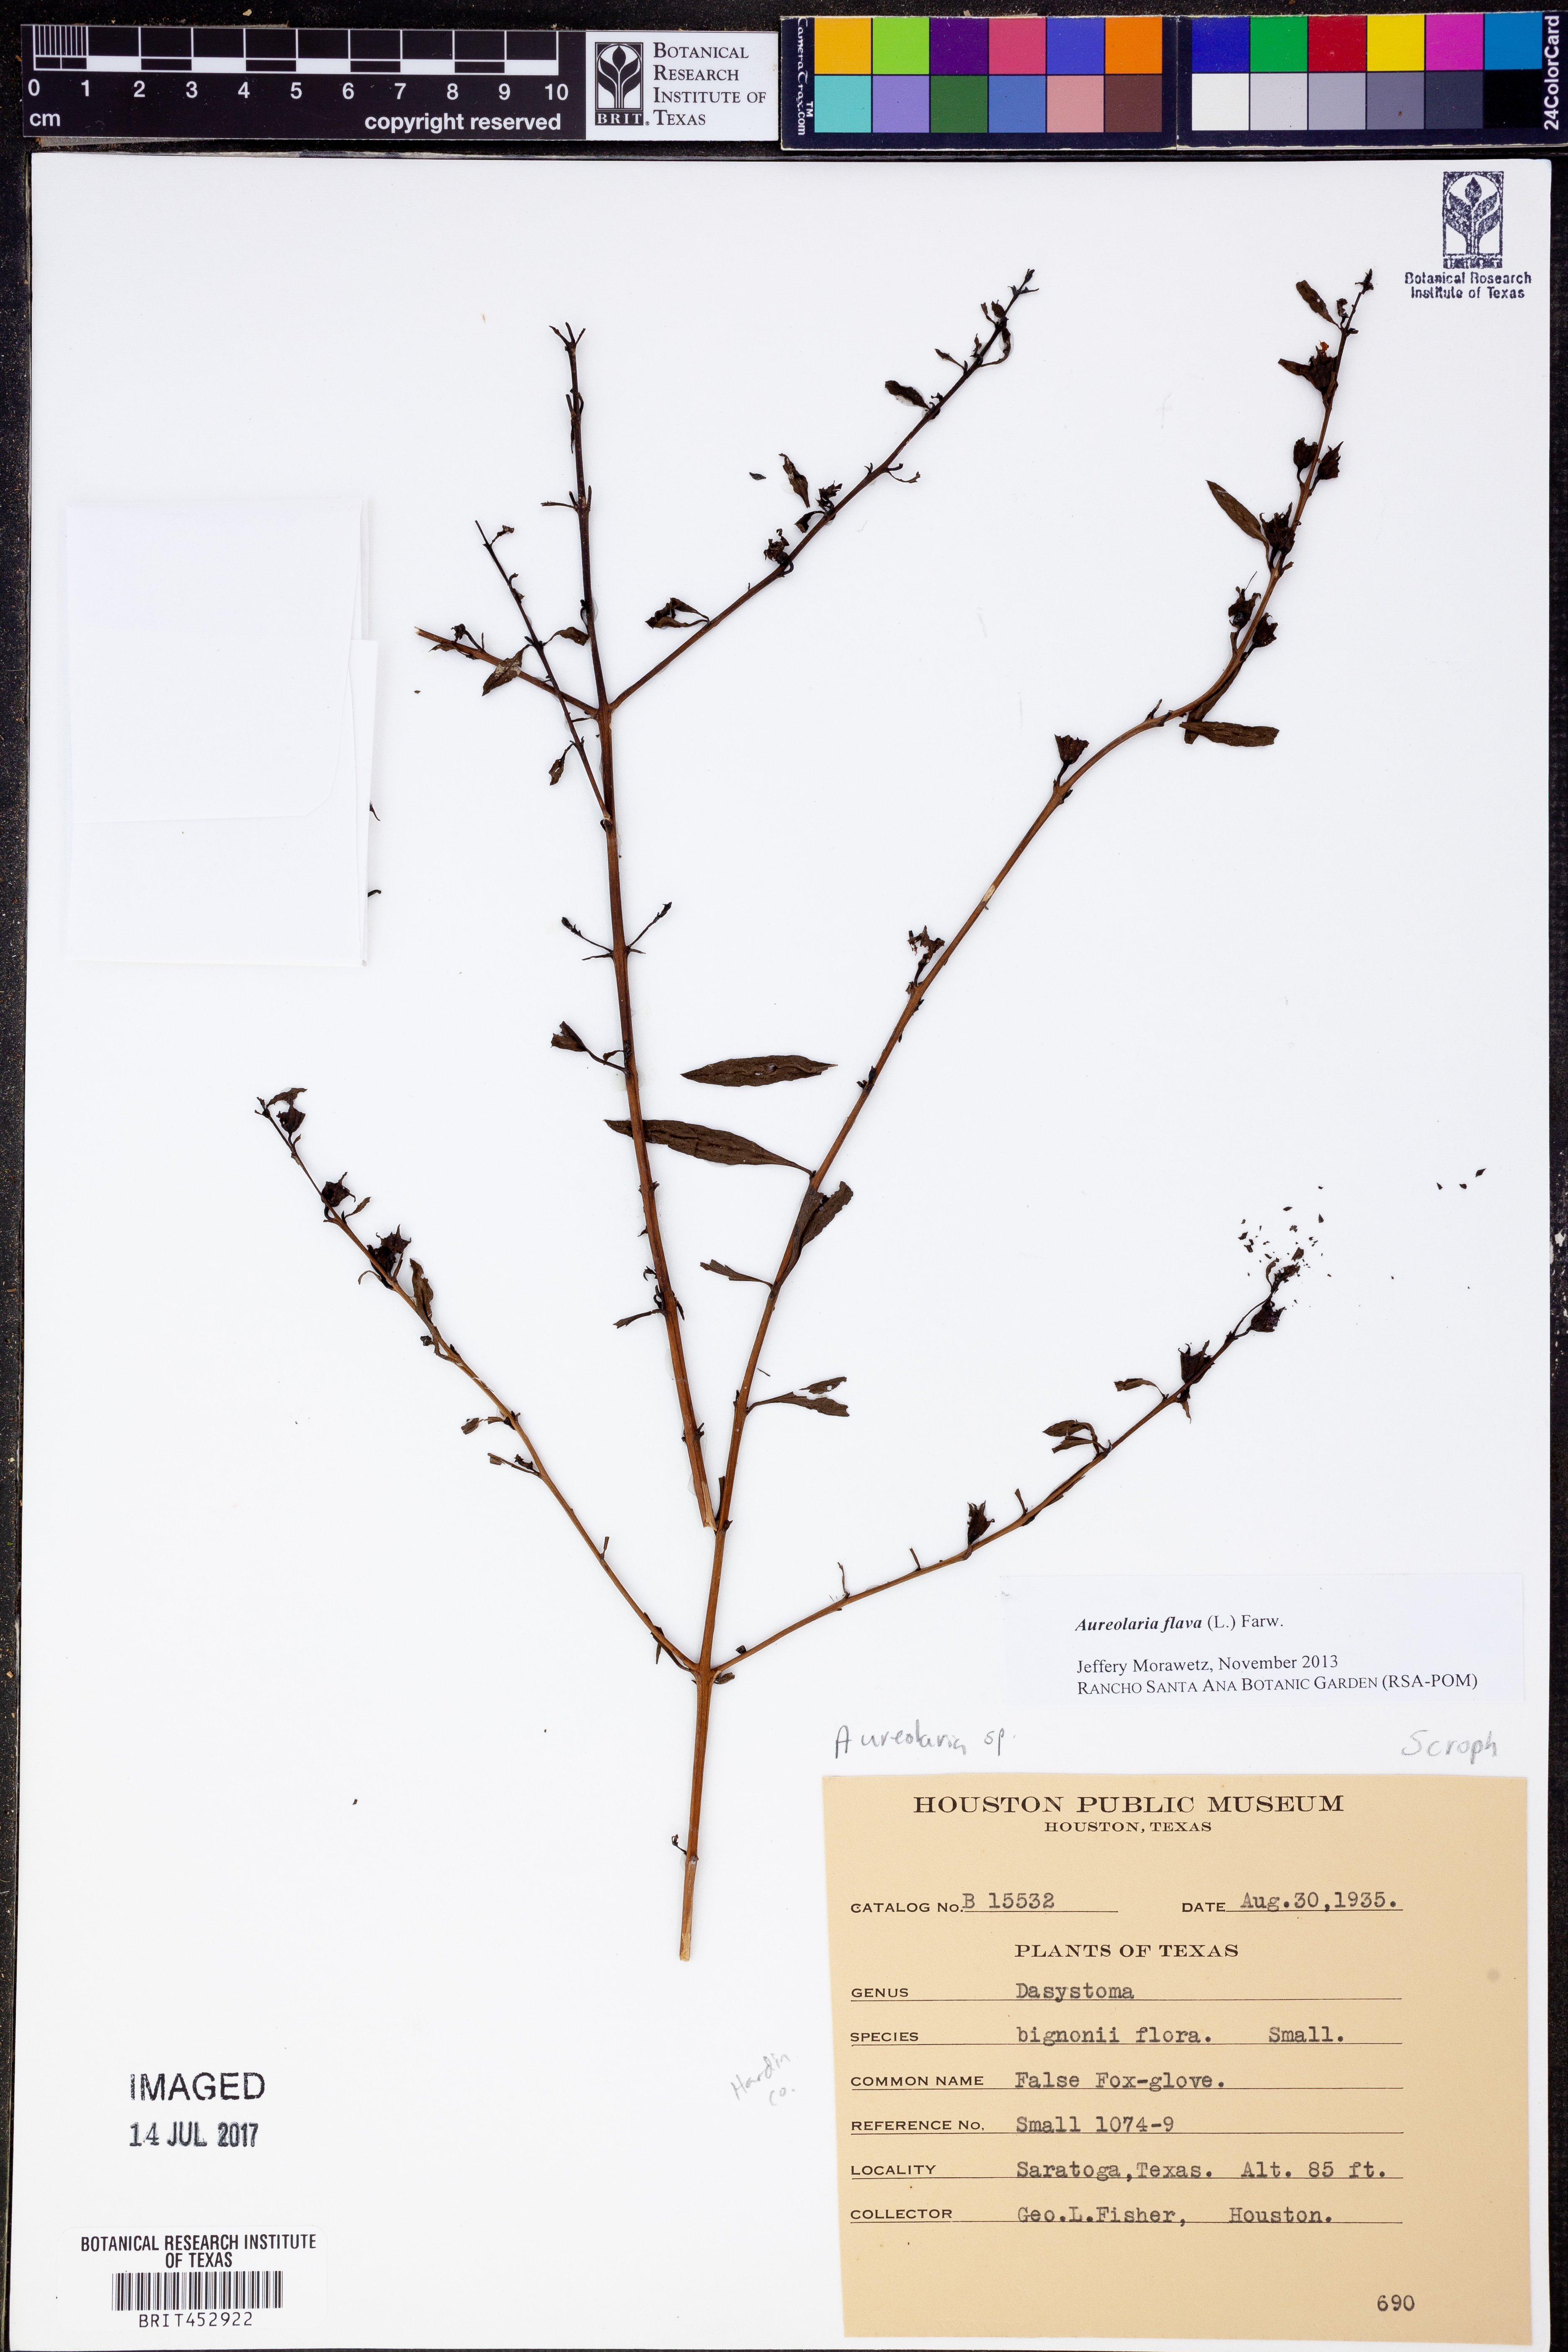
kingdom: Plantae
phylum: Tracheophyta
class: Magnoliopsida
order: Lamiales
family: Orobanchaceae
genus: Aureolaria
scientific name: Aureolaria flava
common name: Smooth false foxglove
